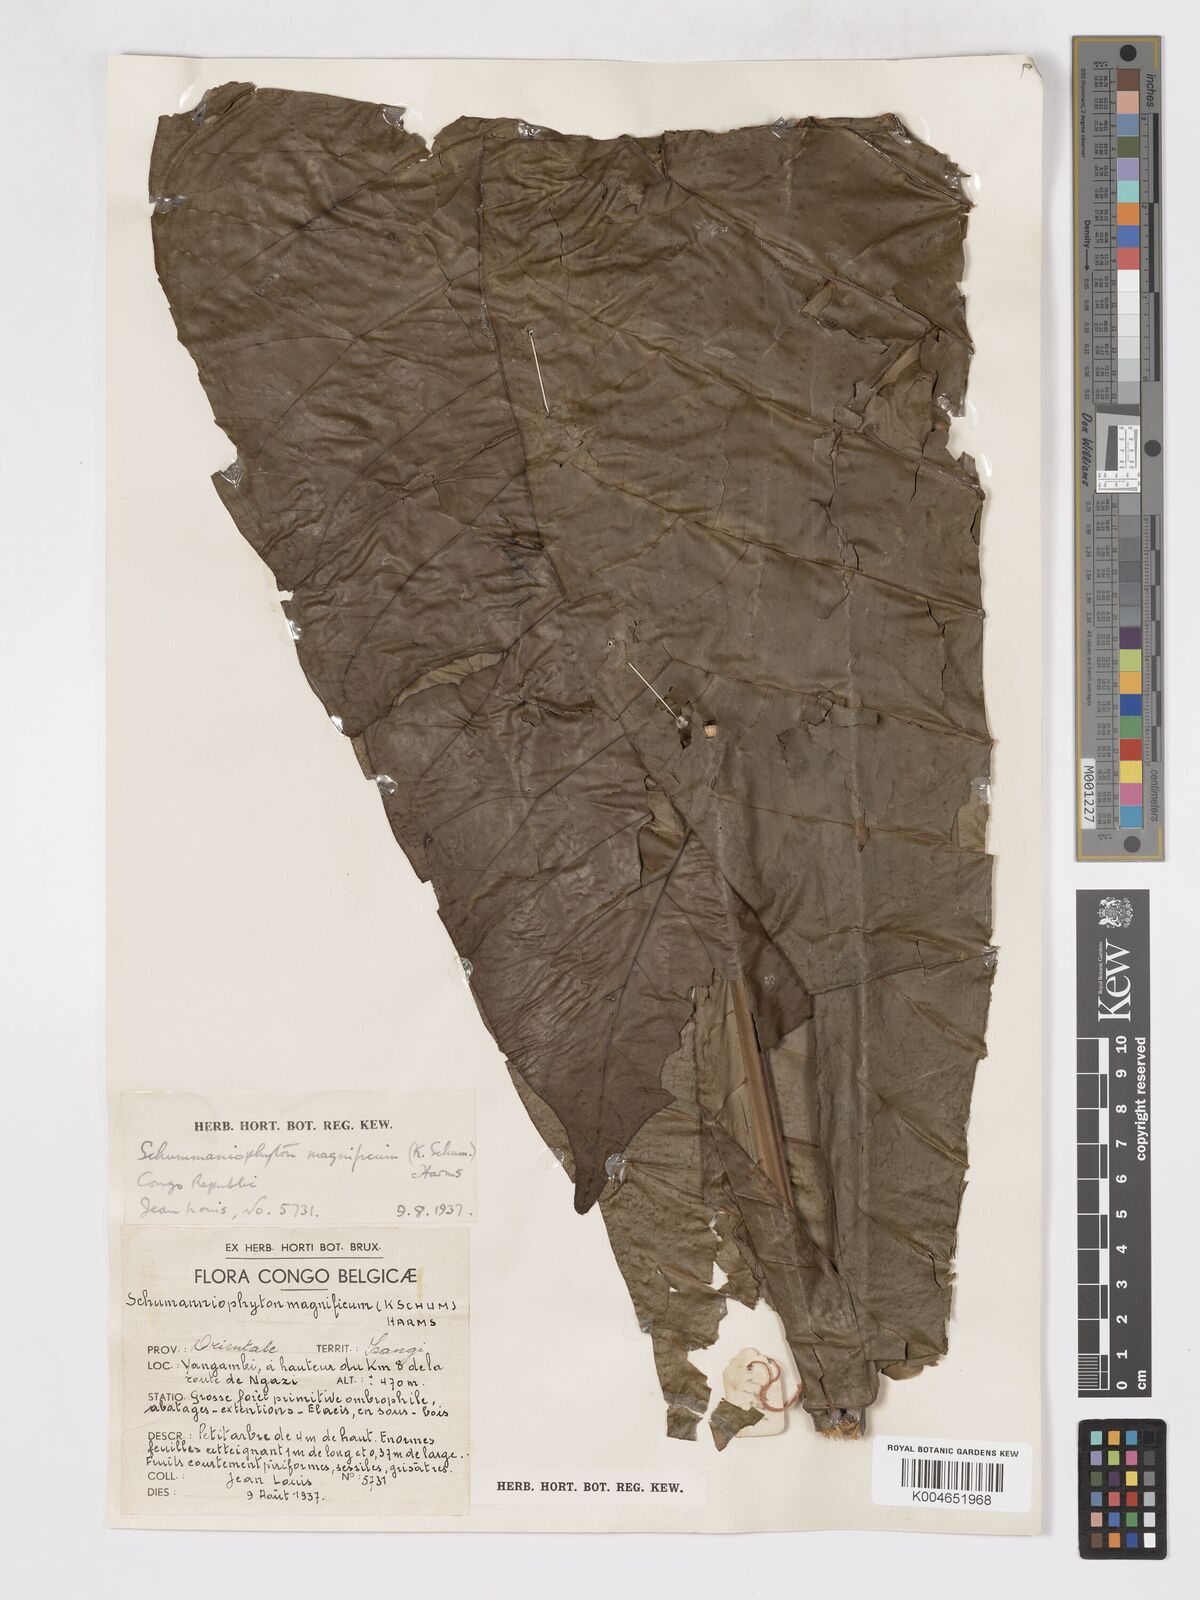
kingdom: Plantae
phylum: Tracheophyta
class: Magnoliopsida
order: Gentianales
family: Rubiaceae
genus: Schumanniophyton
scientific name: Schumanniophyton magnificum
